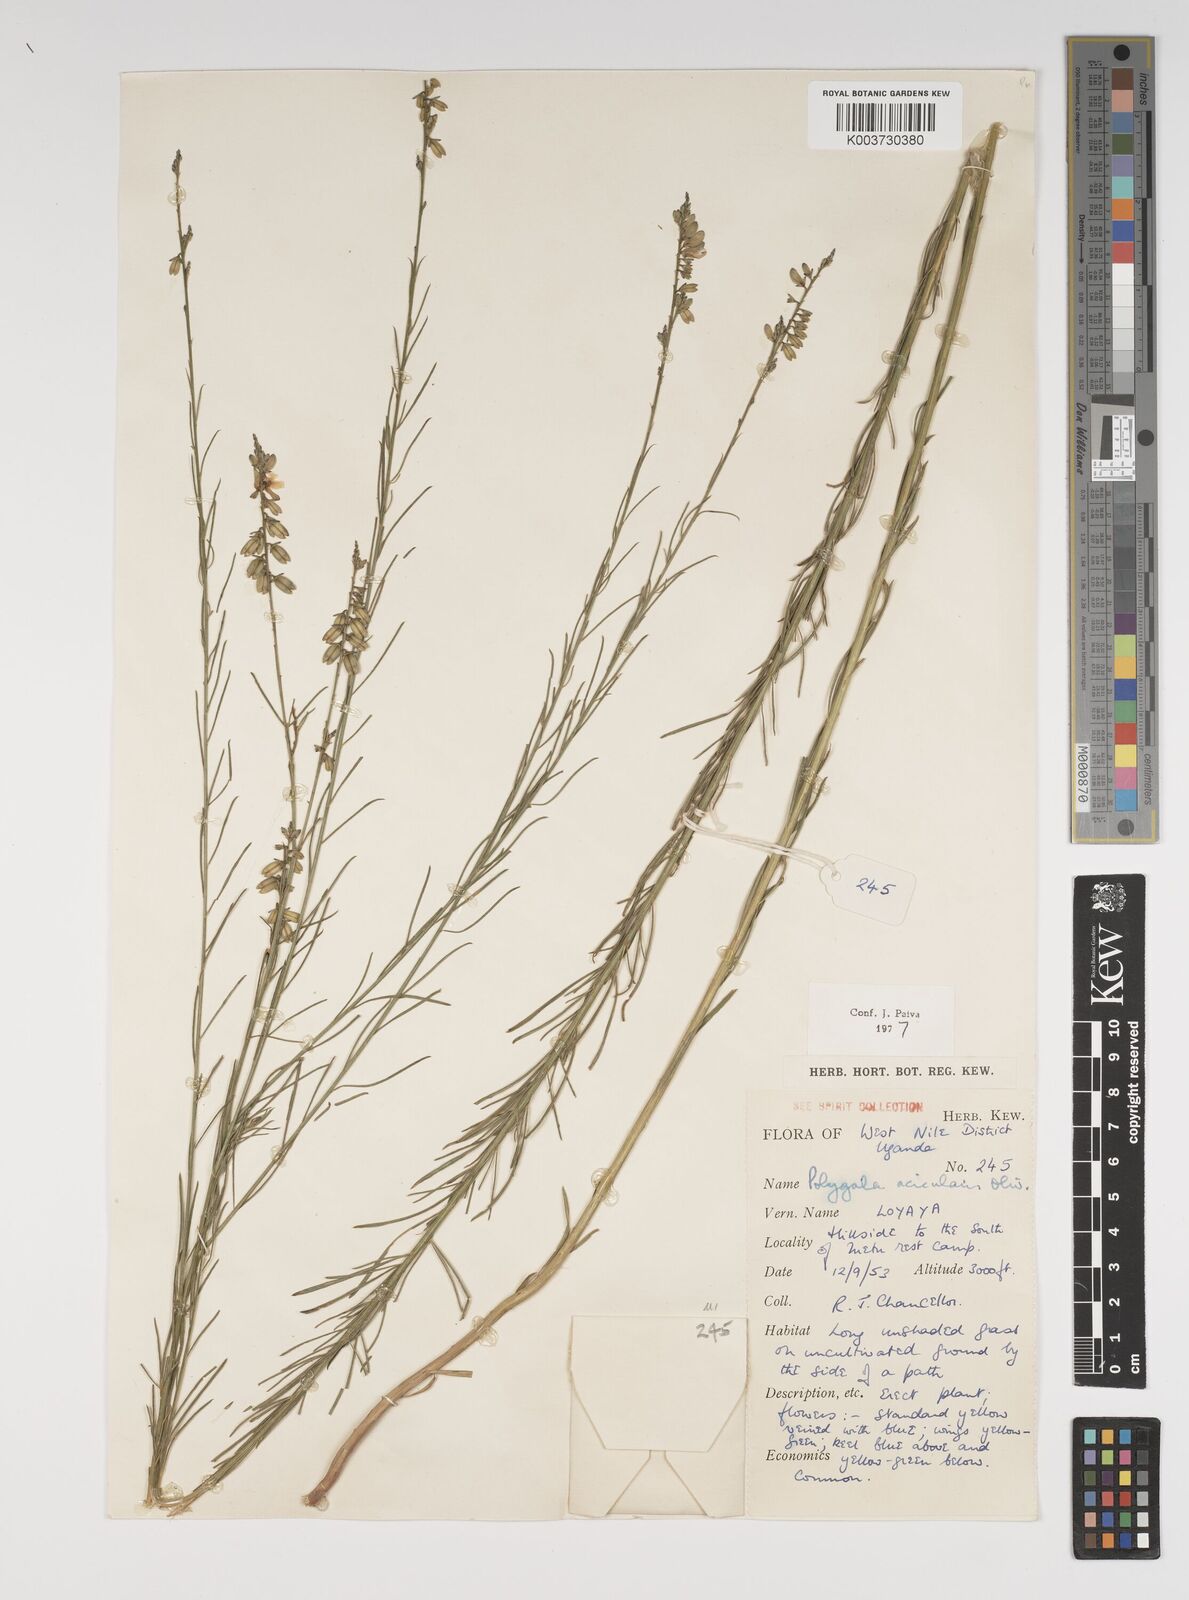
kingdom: Plantae
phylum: Tracheophyta
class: Magnoliopsida
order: Fabales
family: Polygalaceae
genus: Polygala
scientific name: Polygala acicularis
